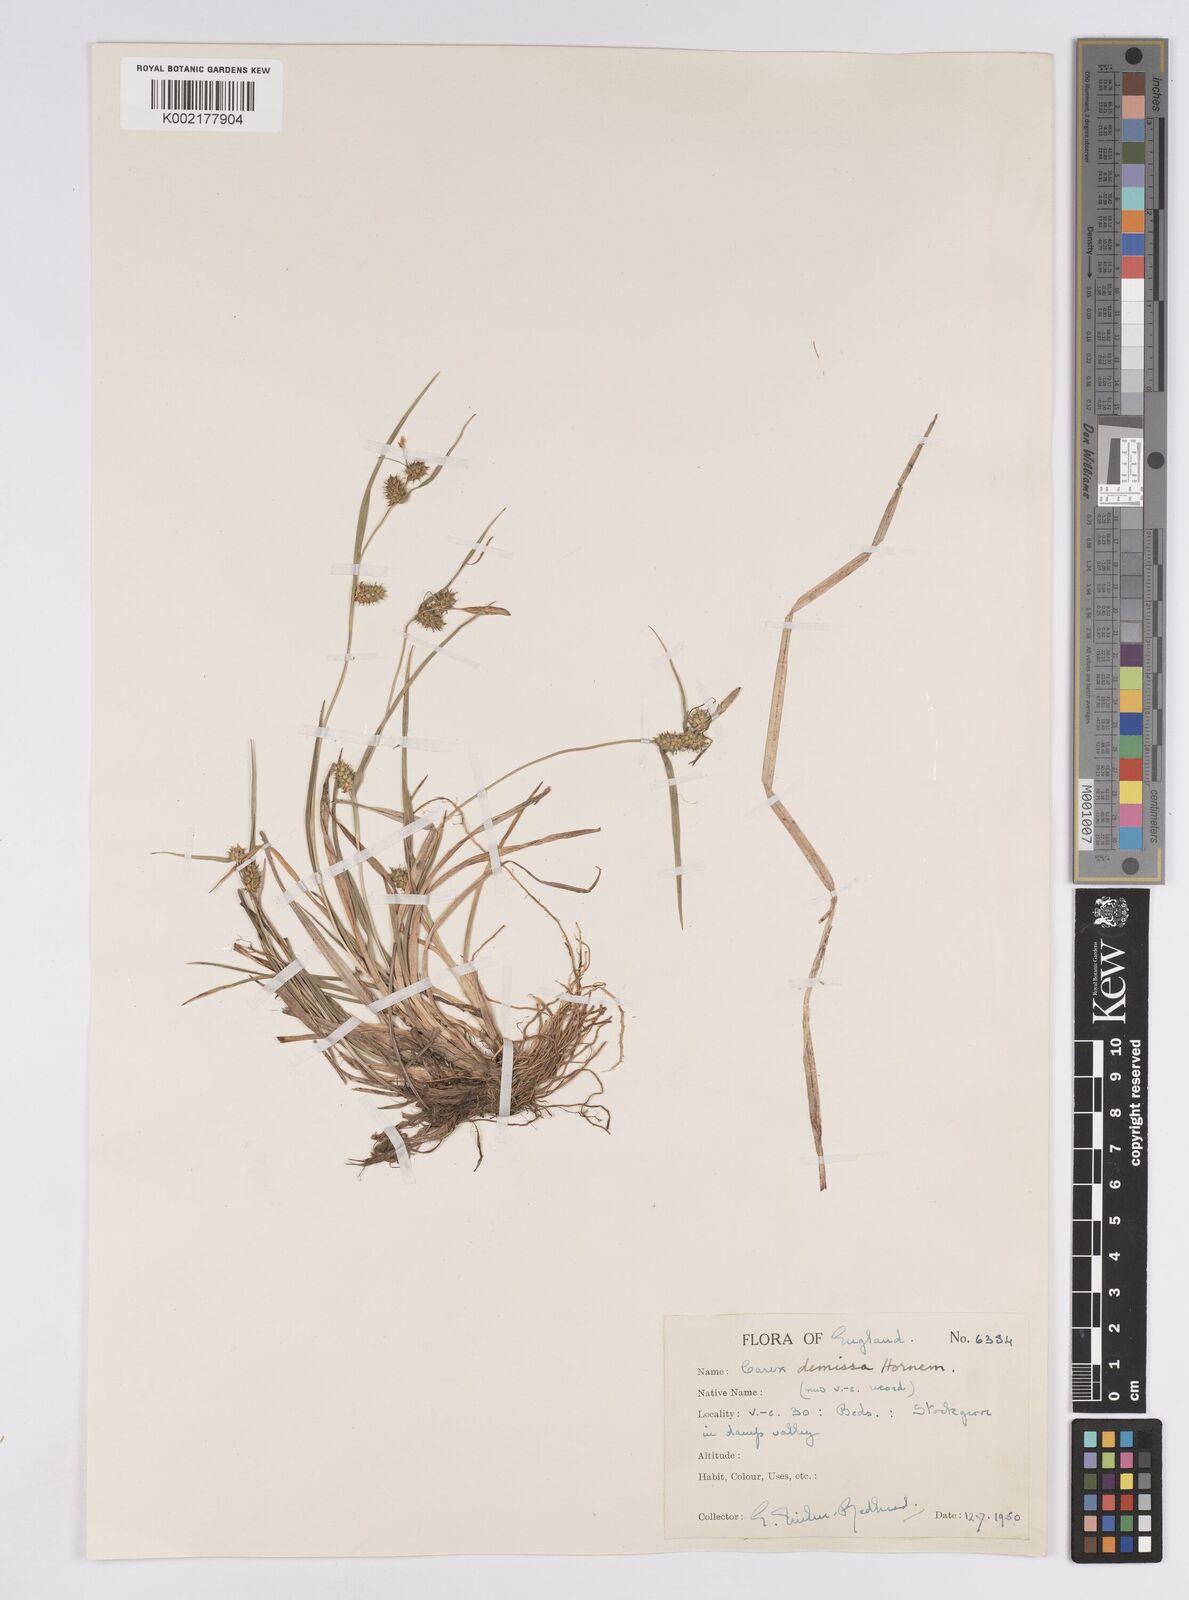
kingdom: Plantae
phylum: Tracheophyta
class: Liliopsida
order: Poales
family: Cyperaceae
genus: Carex
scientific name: Carex demissa
